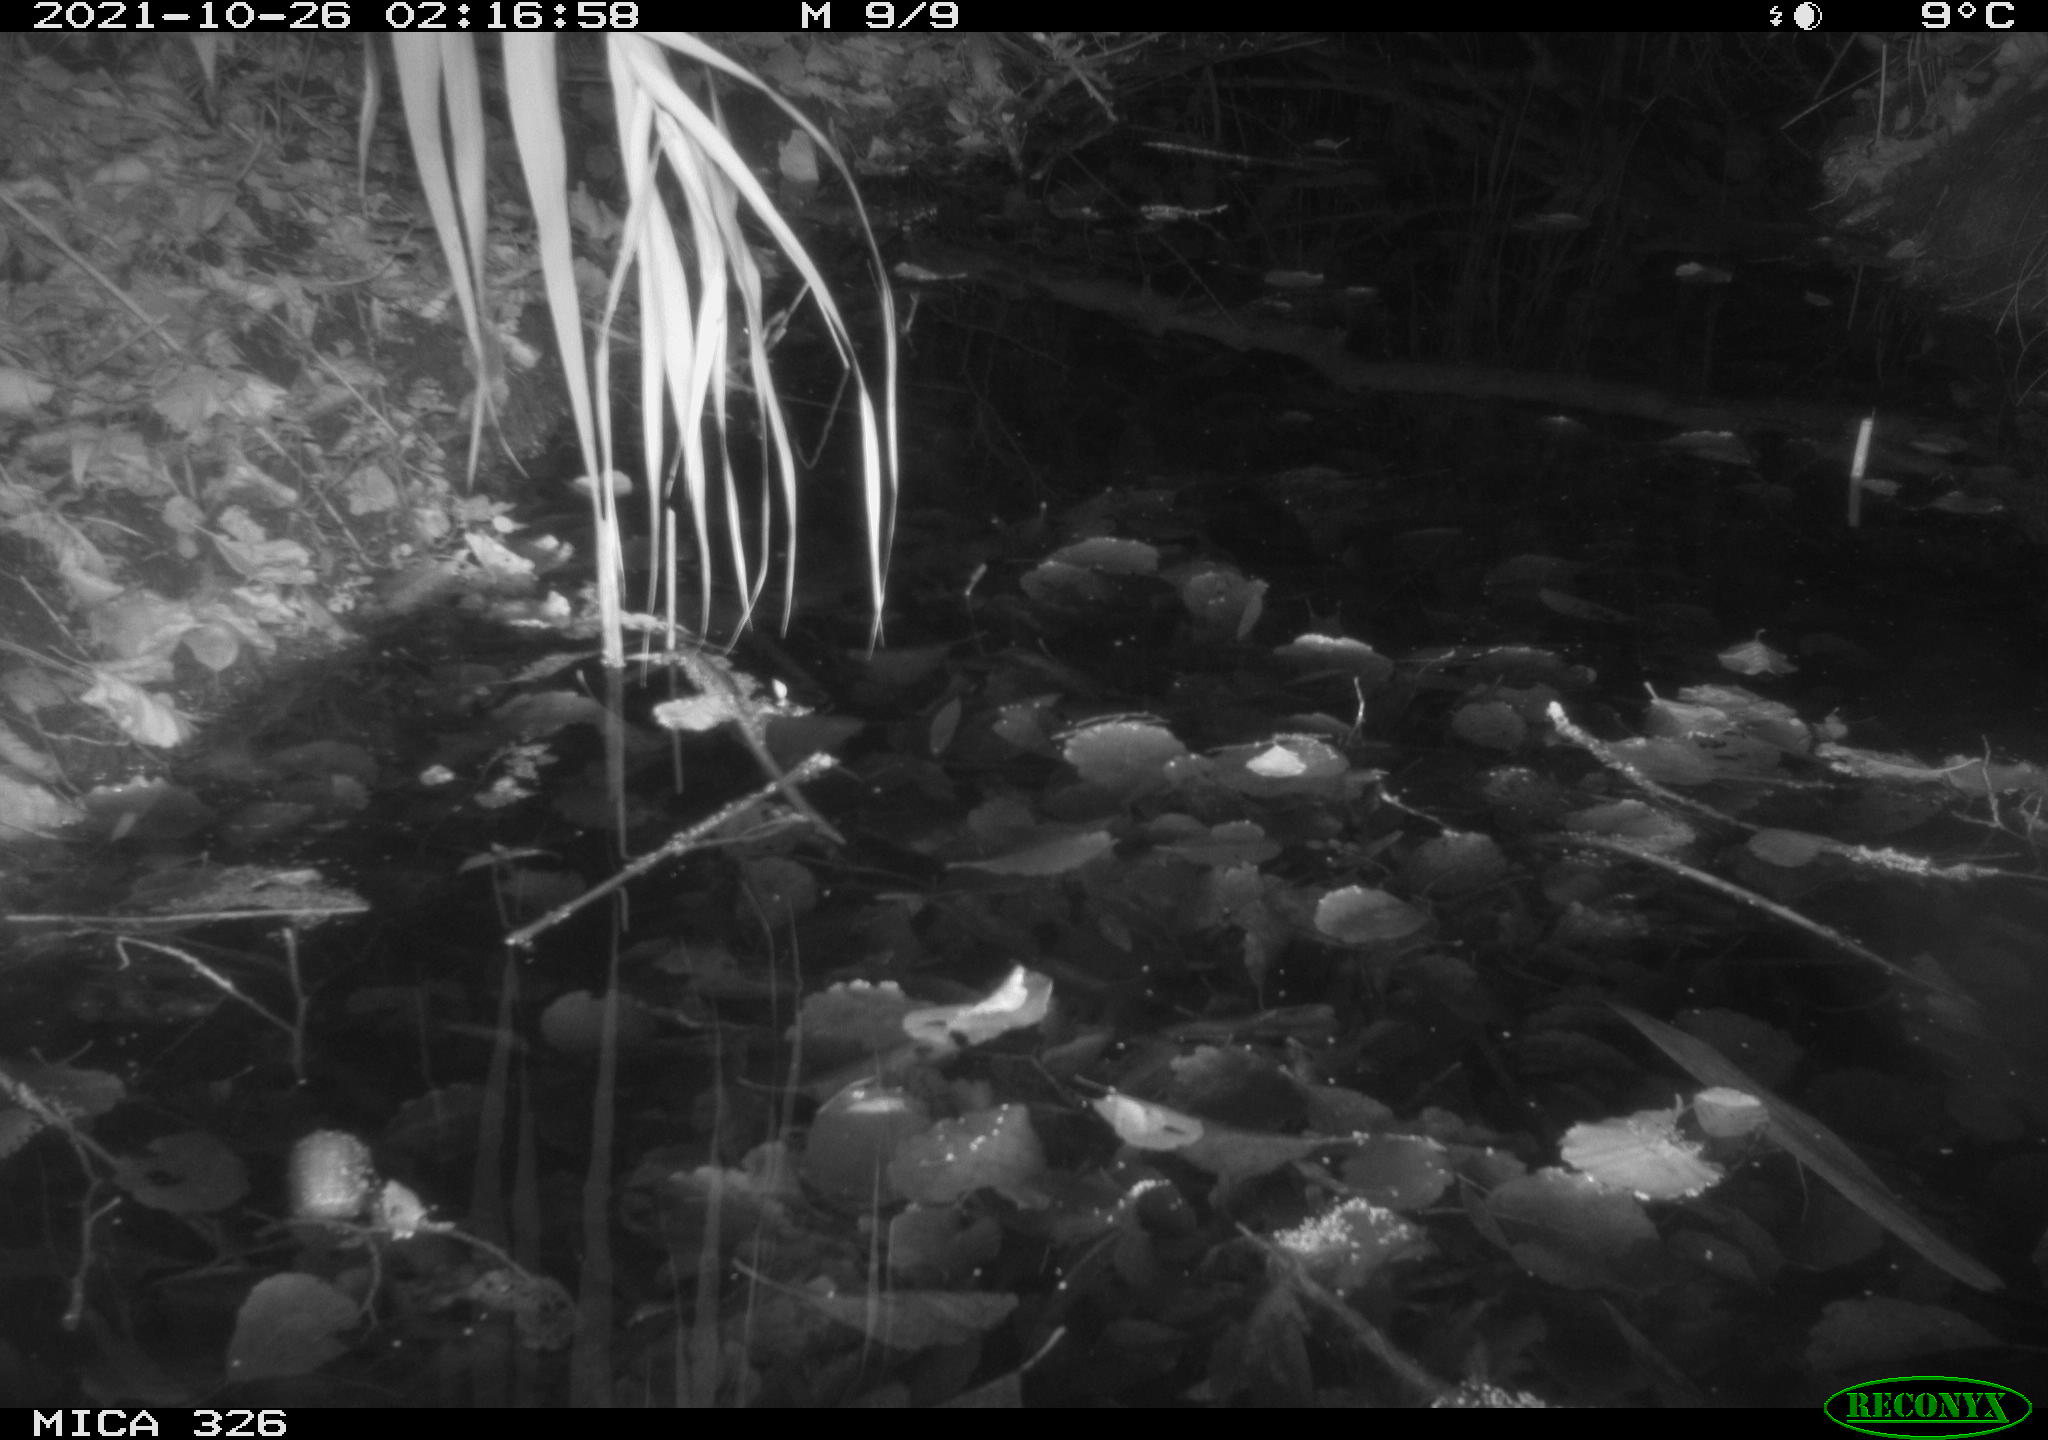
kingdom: Animalia
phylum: Chordata
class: Mammalia
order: Rodentia
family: Muridae
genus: Rattus
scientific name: Rattus norvegicus
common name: Brown rat
